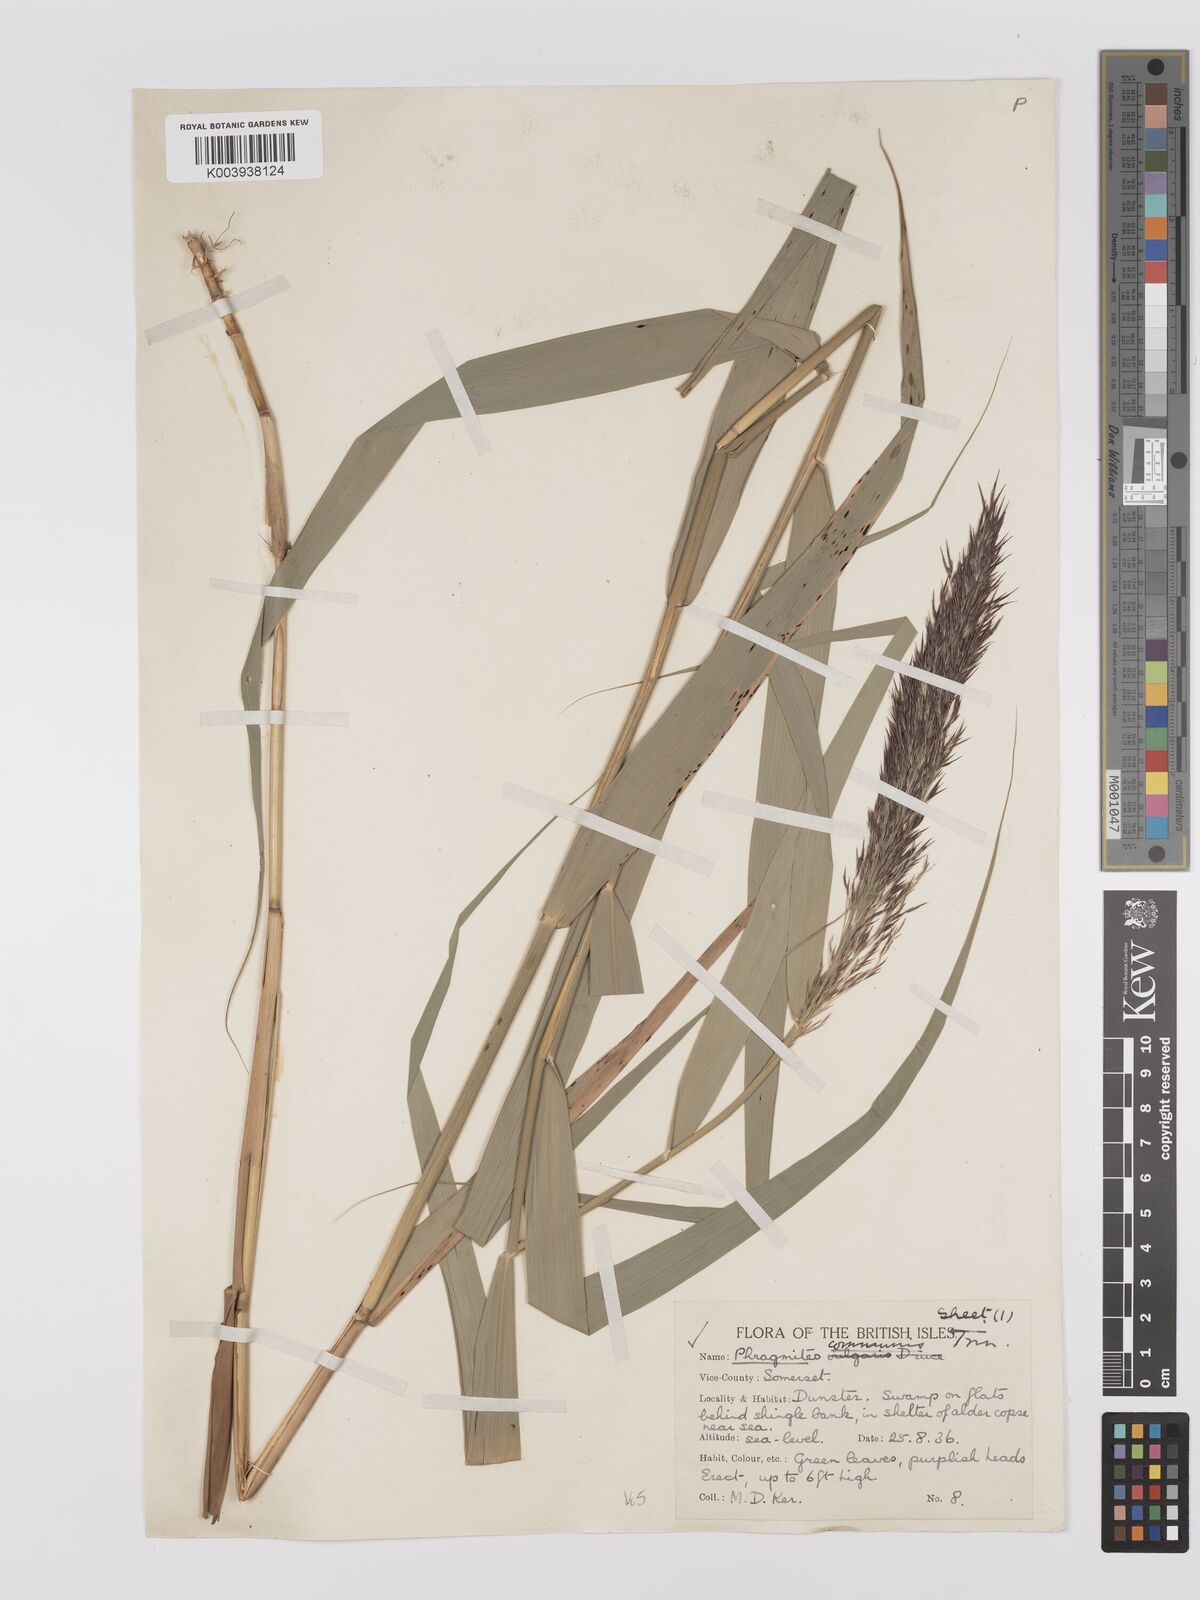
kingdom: Plantae
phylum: Tracheophyta
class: Liliopsida
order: Poales
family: Poaceae
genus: Phragmites
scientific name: Phragmites australis
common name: Common reed
